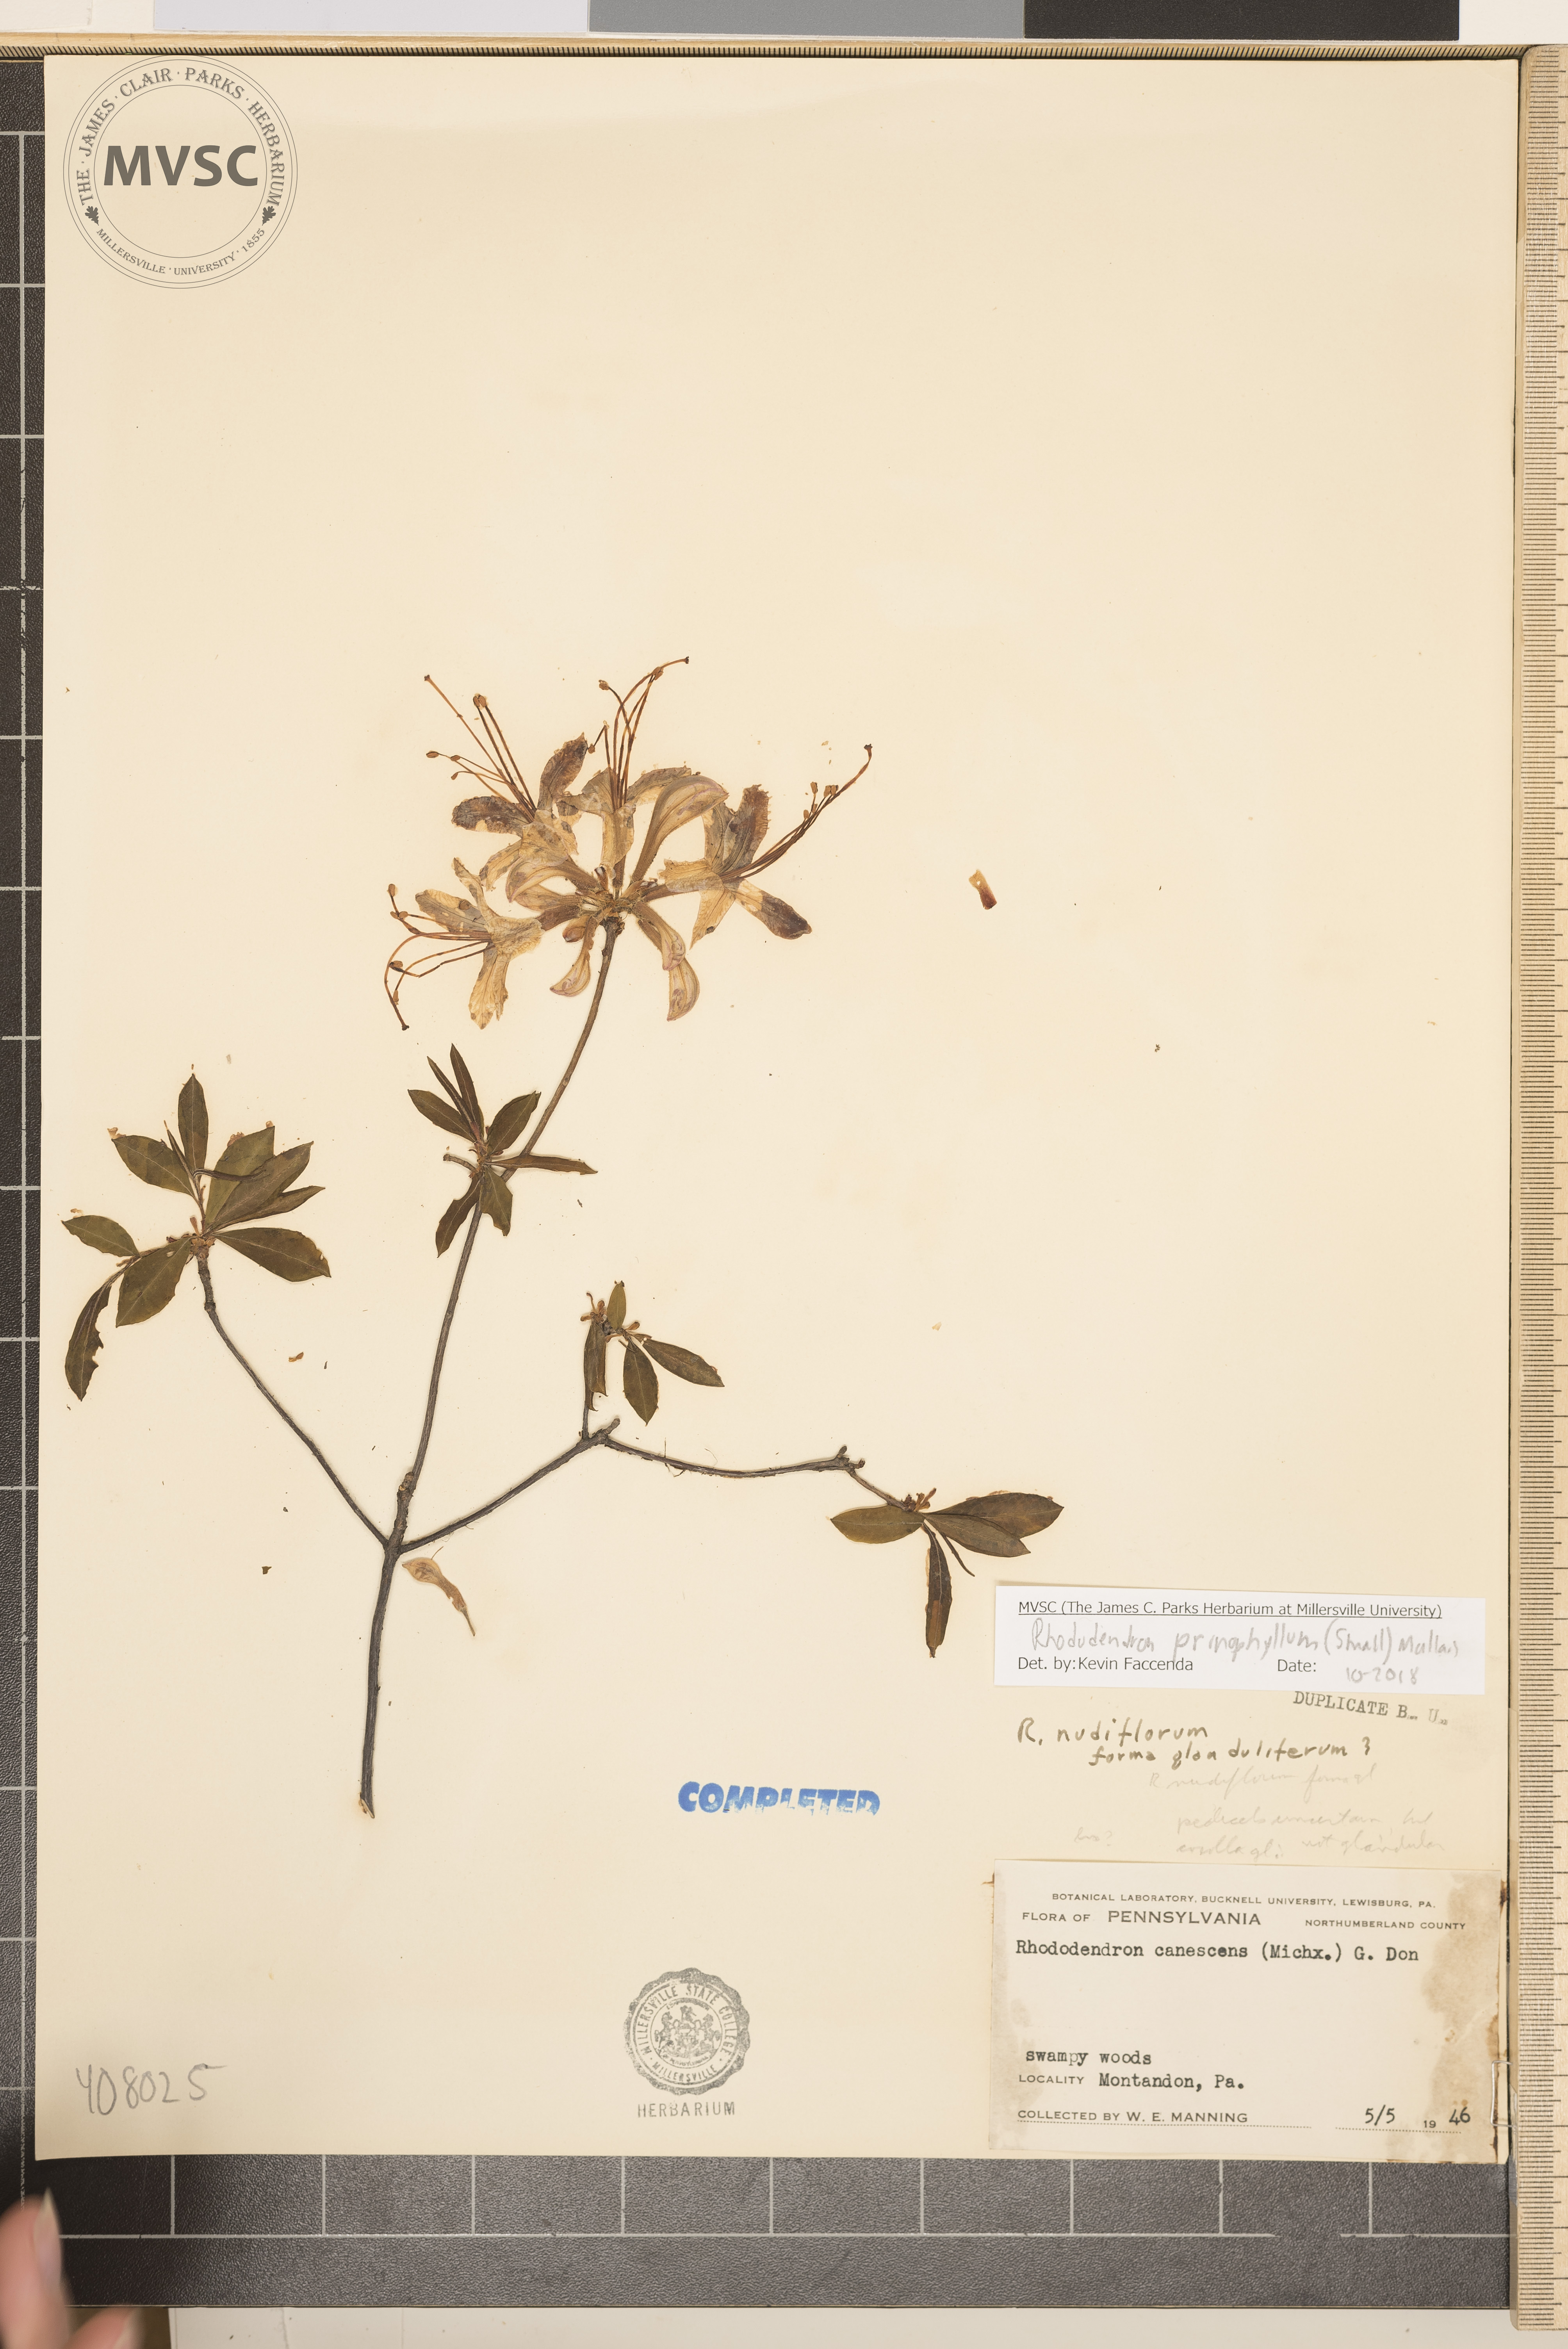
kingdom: Plantae
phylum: Tracheophyta
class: Magnoliopsida
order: Ericales
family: Ericaceae
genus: Rhododendron
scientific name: Rhododendron roseum
